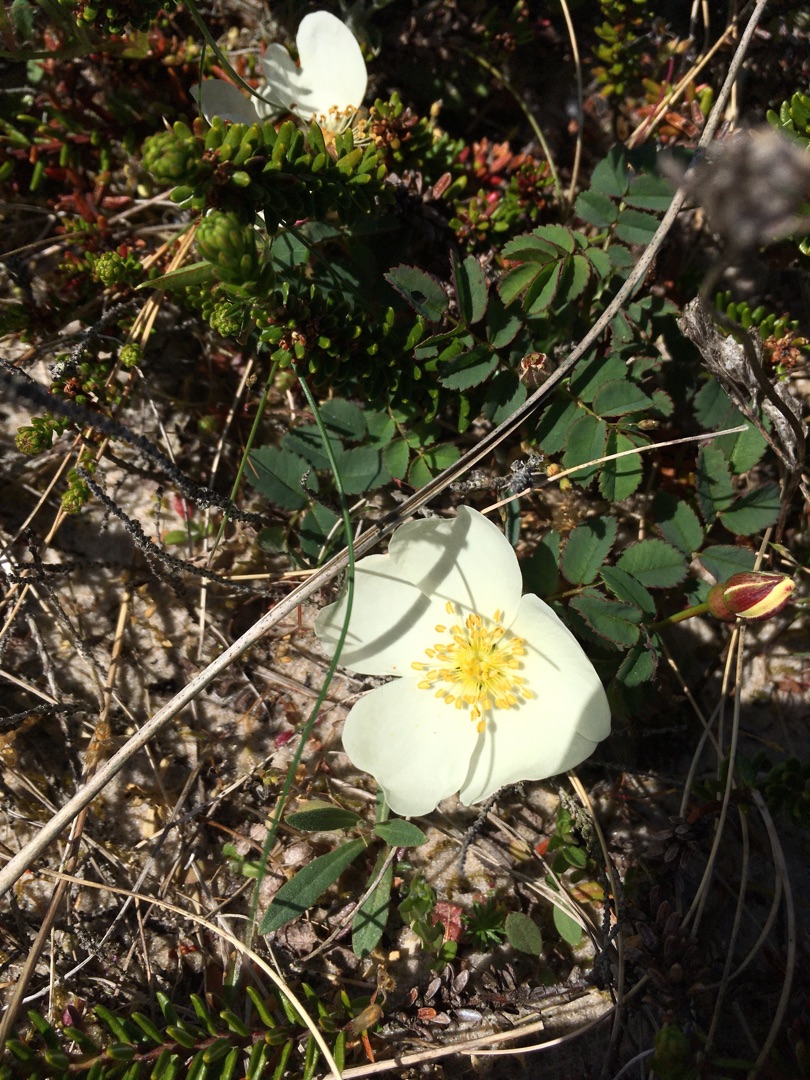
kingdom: Plantae
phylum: Tracheophyta
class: Magnoliopsida
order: Rosales
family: Rosaceae
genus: Rosa
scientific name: Rosa spinosissima
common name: Klit-rose
